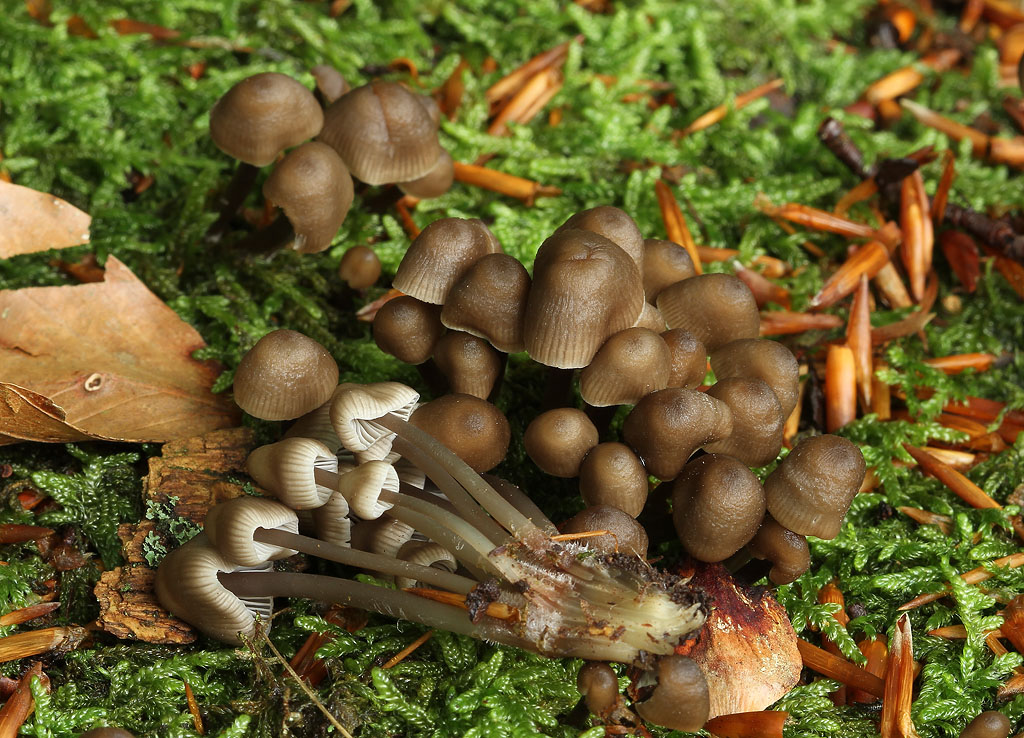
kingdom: Fungi
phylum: Basidiomycota
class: Agaricomycetes
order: Agaricales
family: Mycenaceae
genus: Mycena
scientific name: Mycena maculata
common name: rødplettet huesvamp
